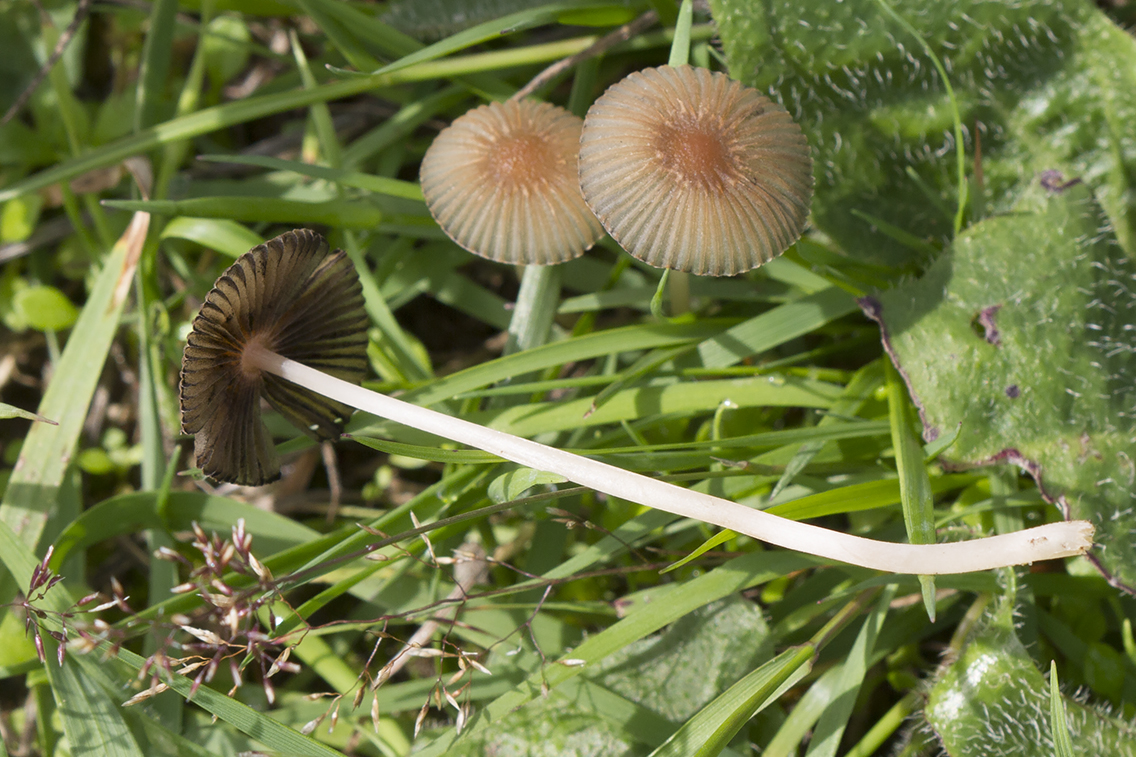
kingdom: Fungi
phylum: Basidiomycota
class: Agaricomycetes
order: Agaricales
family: Psathyrellaceae
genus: Parasola
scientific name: Parasola
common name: hjulhat
